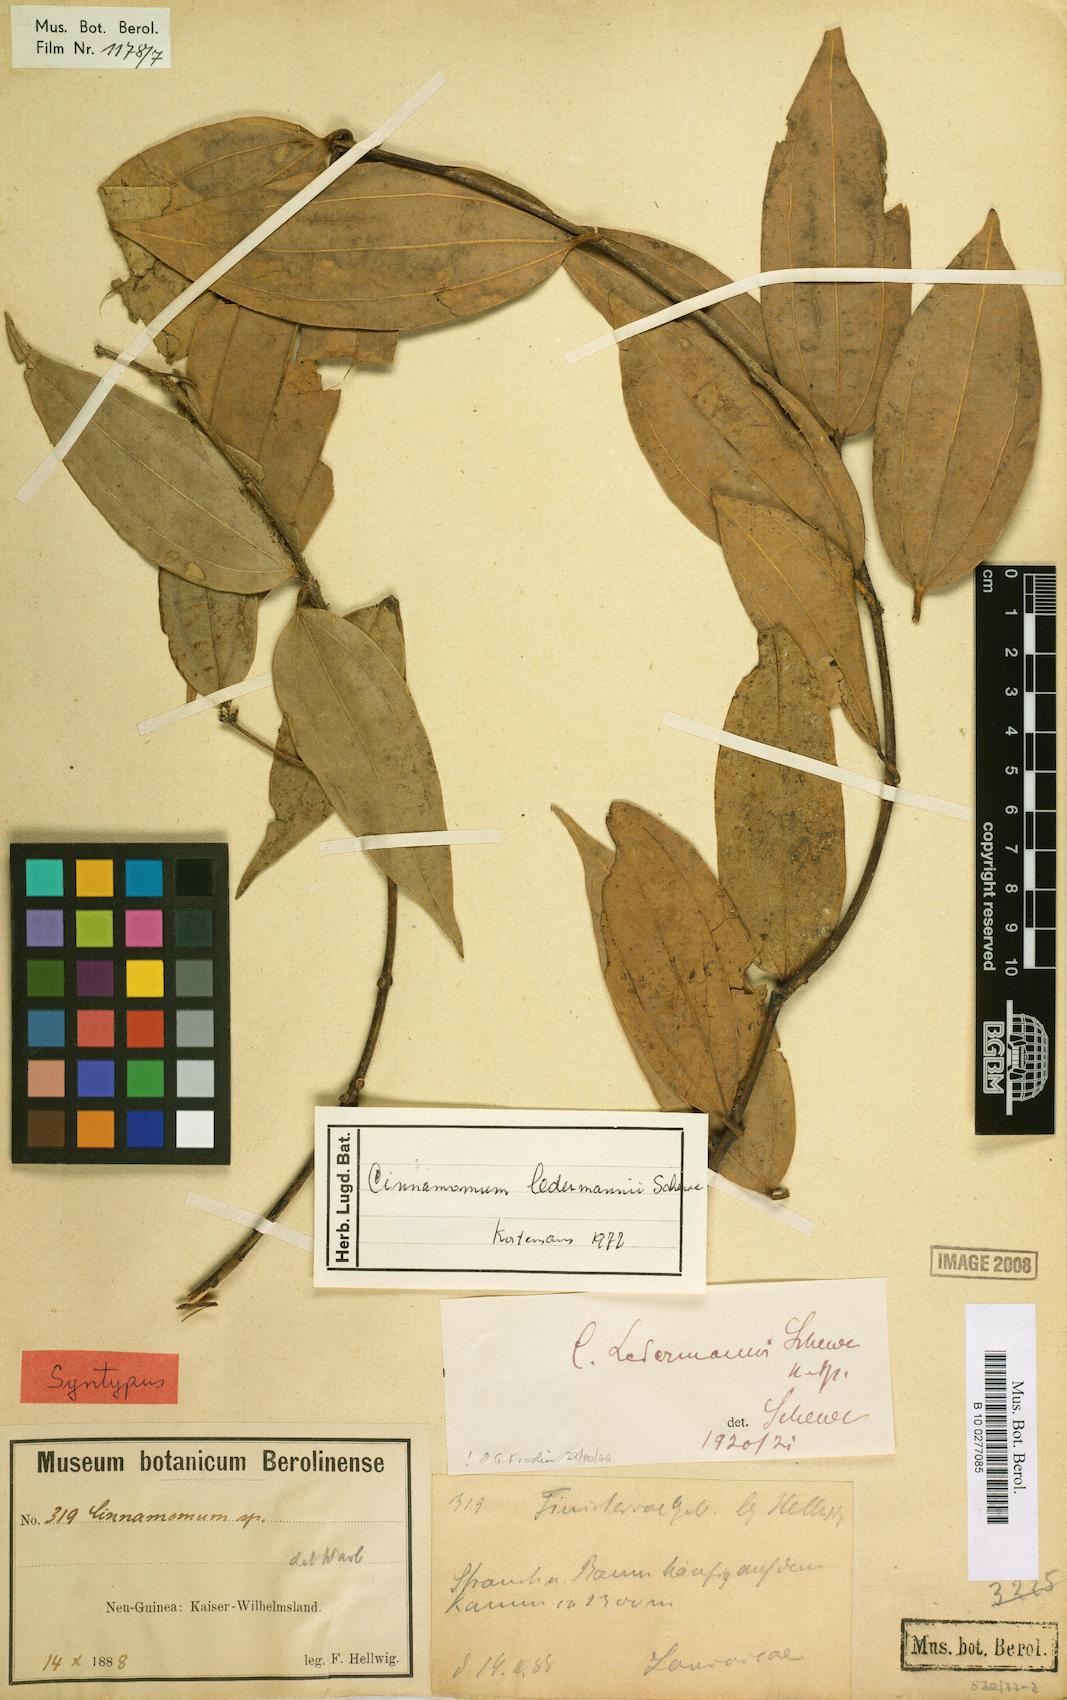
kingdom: Plantae
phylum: Tracheophyta
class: Magnoliopsida
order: Laurales
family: Lauraceae
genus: Cinnamomum
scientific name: Cinnamomum ledermannii
